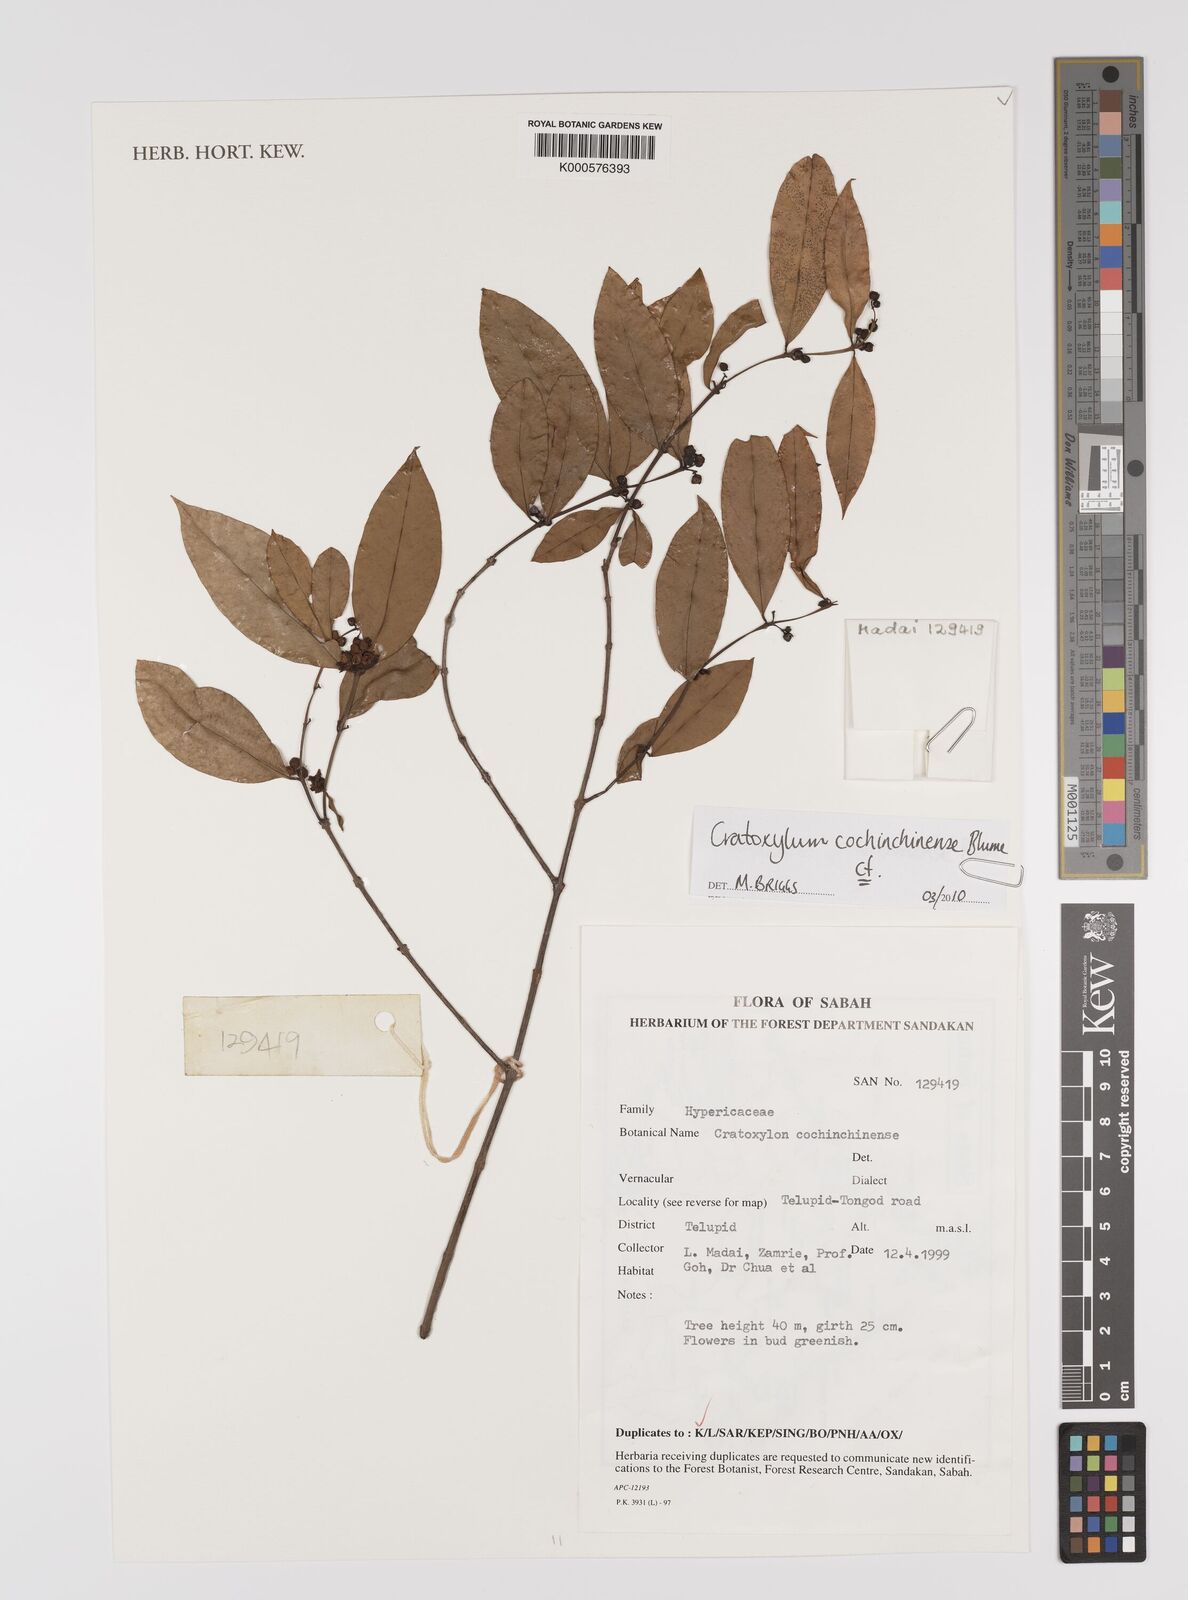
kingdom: Plantae
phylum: Tracheophyta
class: Magnoliopsida
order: Malpighiales
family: Hypericaceae
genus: Cratoxylum
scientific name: Cratoxylum cochinchinense
